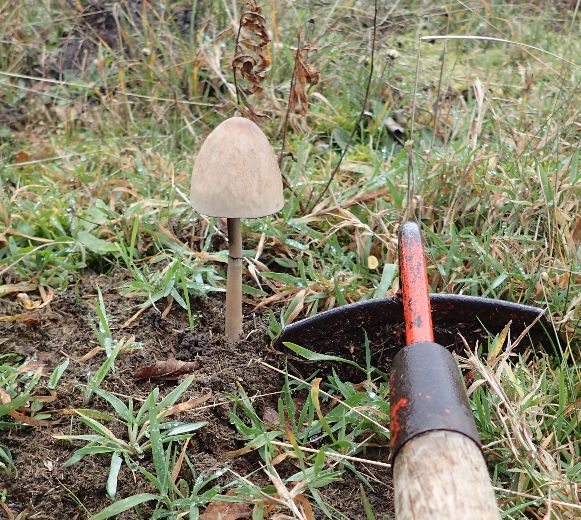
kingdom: Fungi
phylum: Basidiomycota
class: Agaricomycetes
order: Agaricales
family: Bolbitiaceae
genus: Panaeolus
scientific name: Panaeolus semiovatus
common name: ring-glanshat
